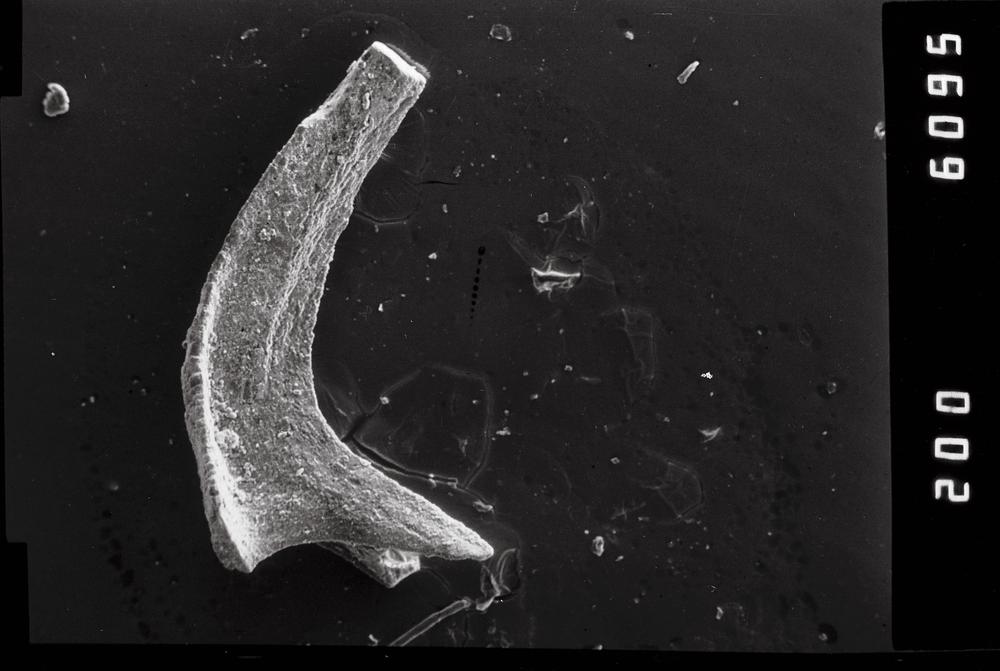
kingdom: Animalia
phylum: Chordata
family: Acodontidae
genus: Tripodus
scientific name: Tripodus
